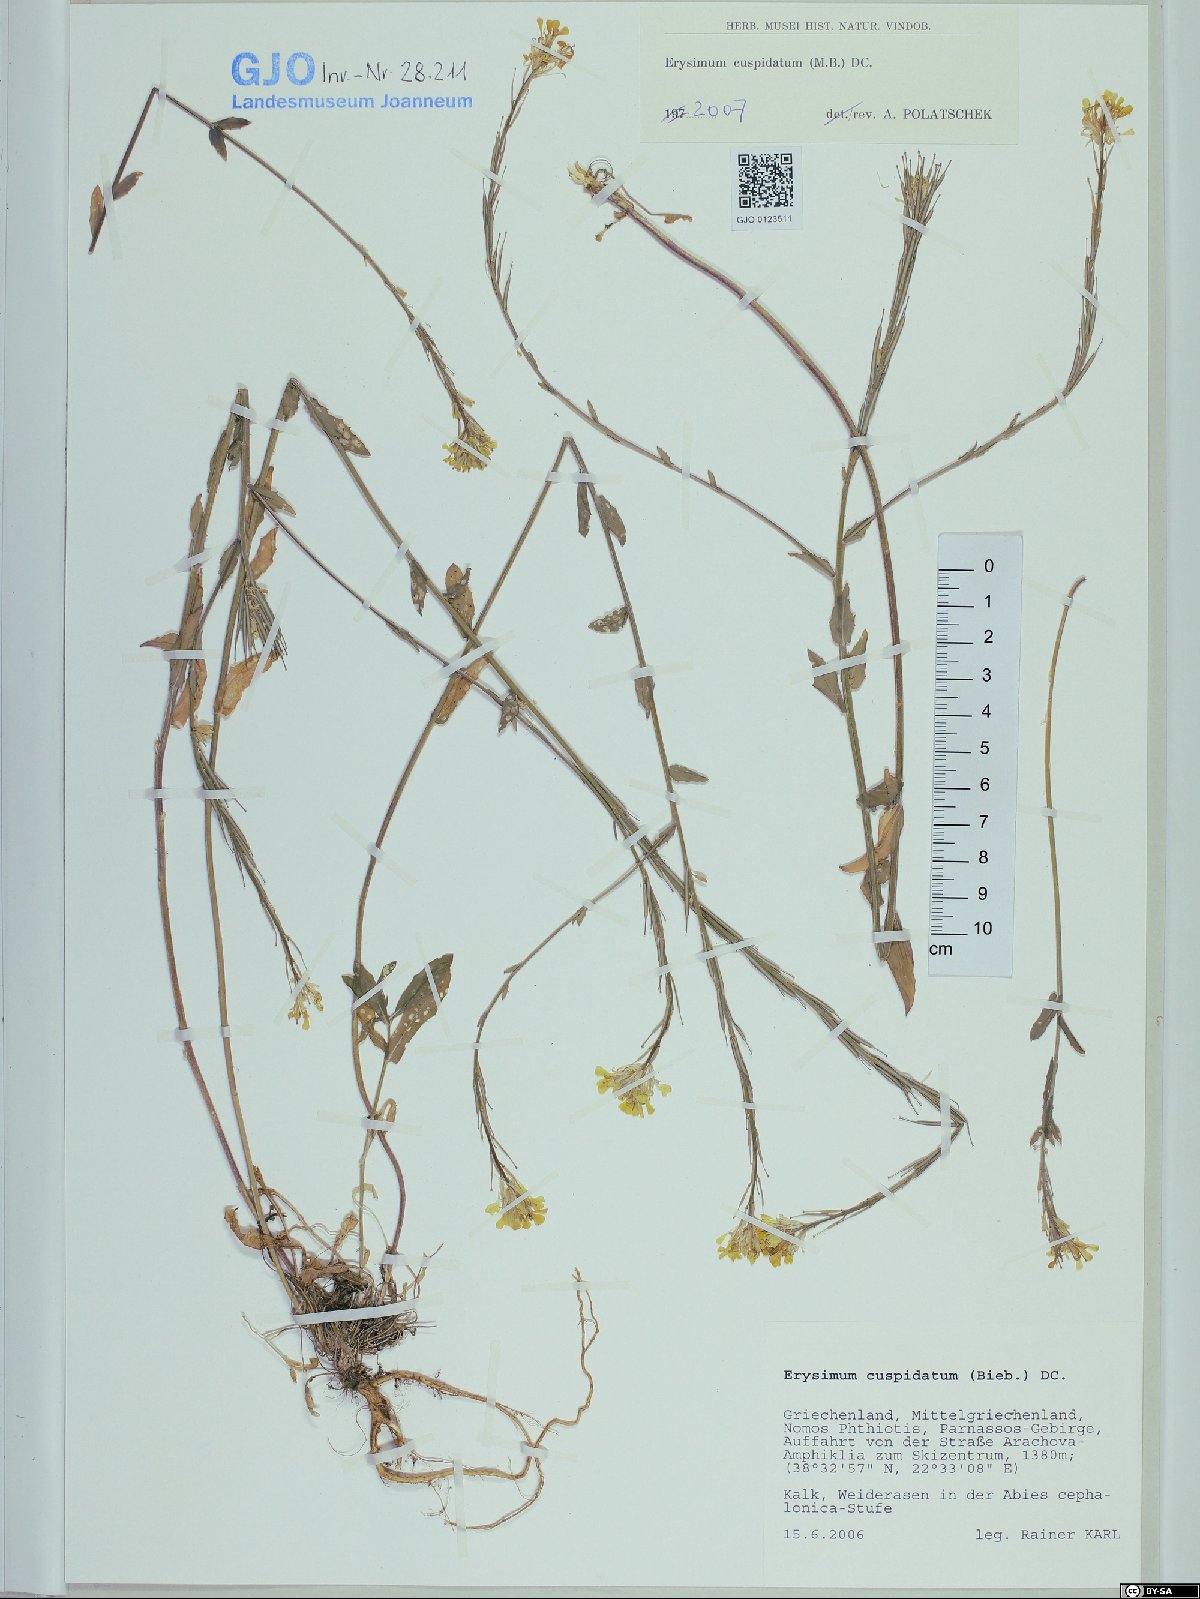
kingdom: Plantae
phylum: Tracheophyta
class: Magnoliopsida
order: Brassicales
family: Brassicaceae
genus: Erysimum
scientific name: Erysimum cuspidatum
